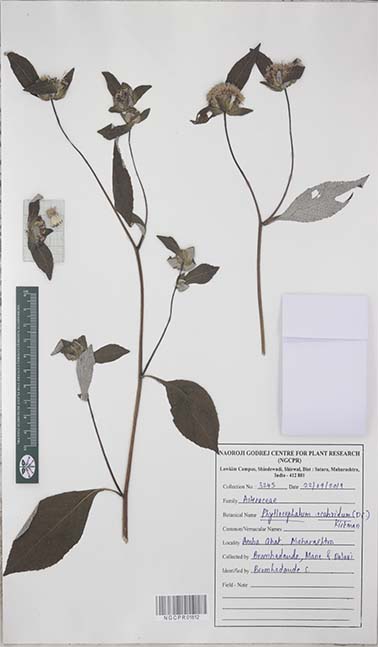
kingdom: Plantae
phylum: Tracheophyta
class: Magnoliopsida
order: Asterales
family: Asteraceae
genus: Phyllocephalum
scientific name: Phyllocephalum scabridum
